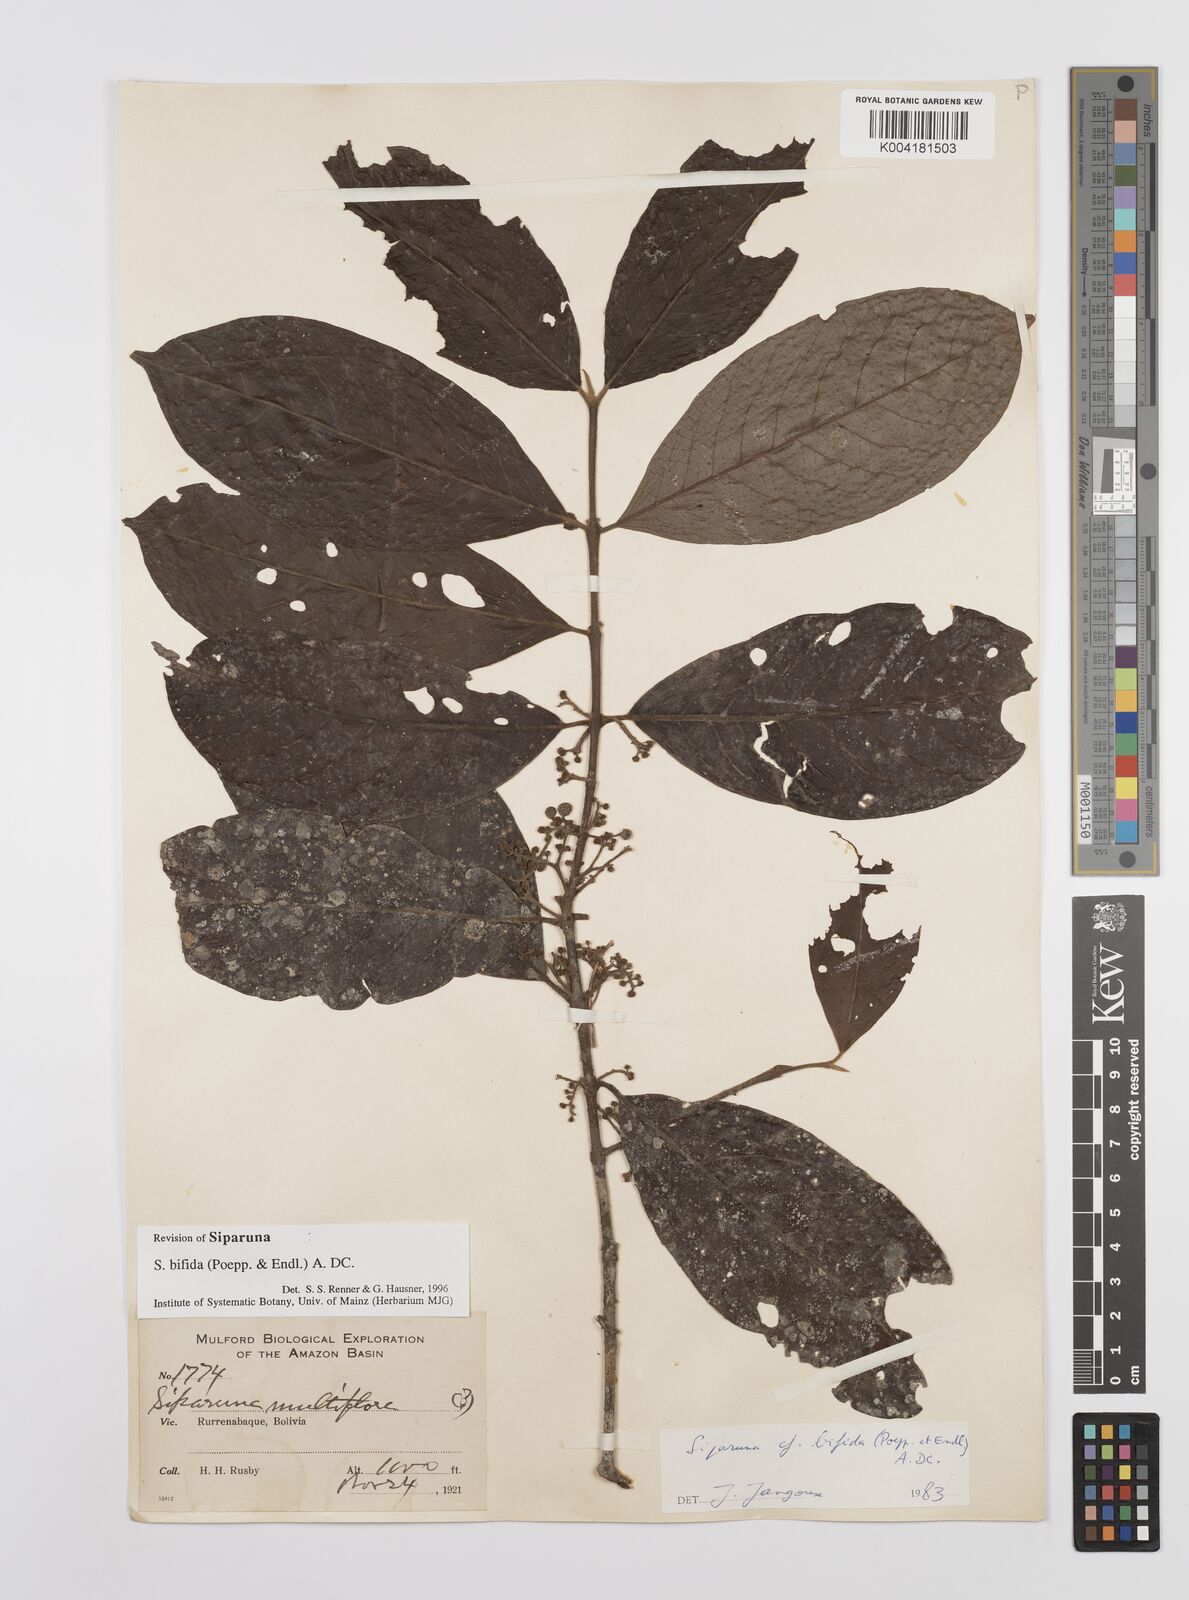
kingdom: Plantae
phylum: Tracheophyta
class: Magnoliopsida
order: Laurales
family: Siparunaceae
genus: Siparuna
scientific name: Siparuna bifida
